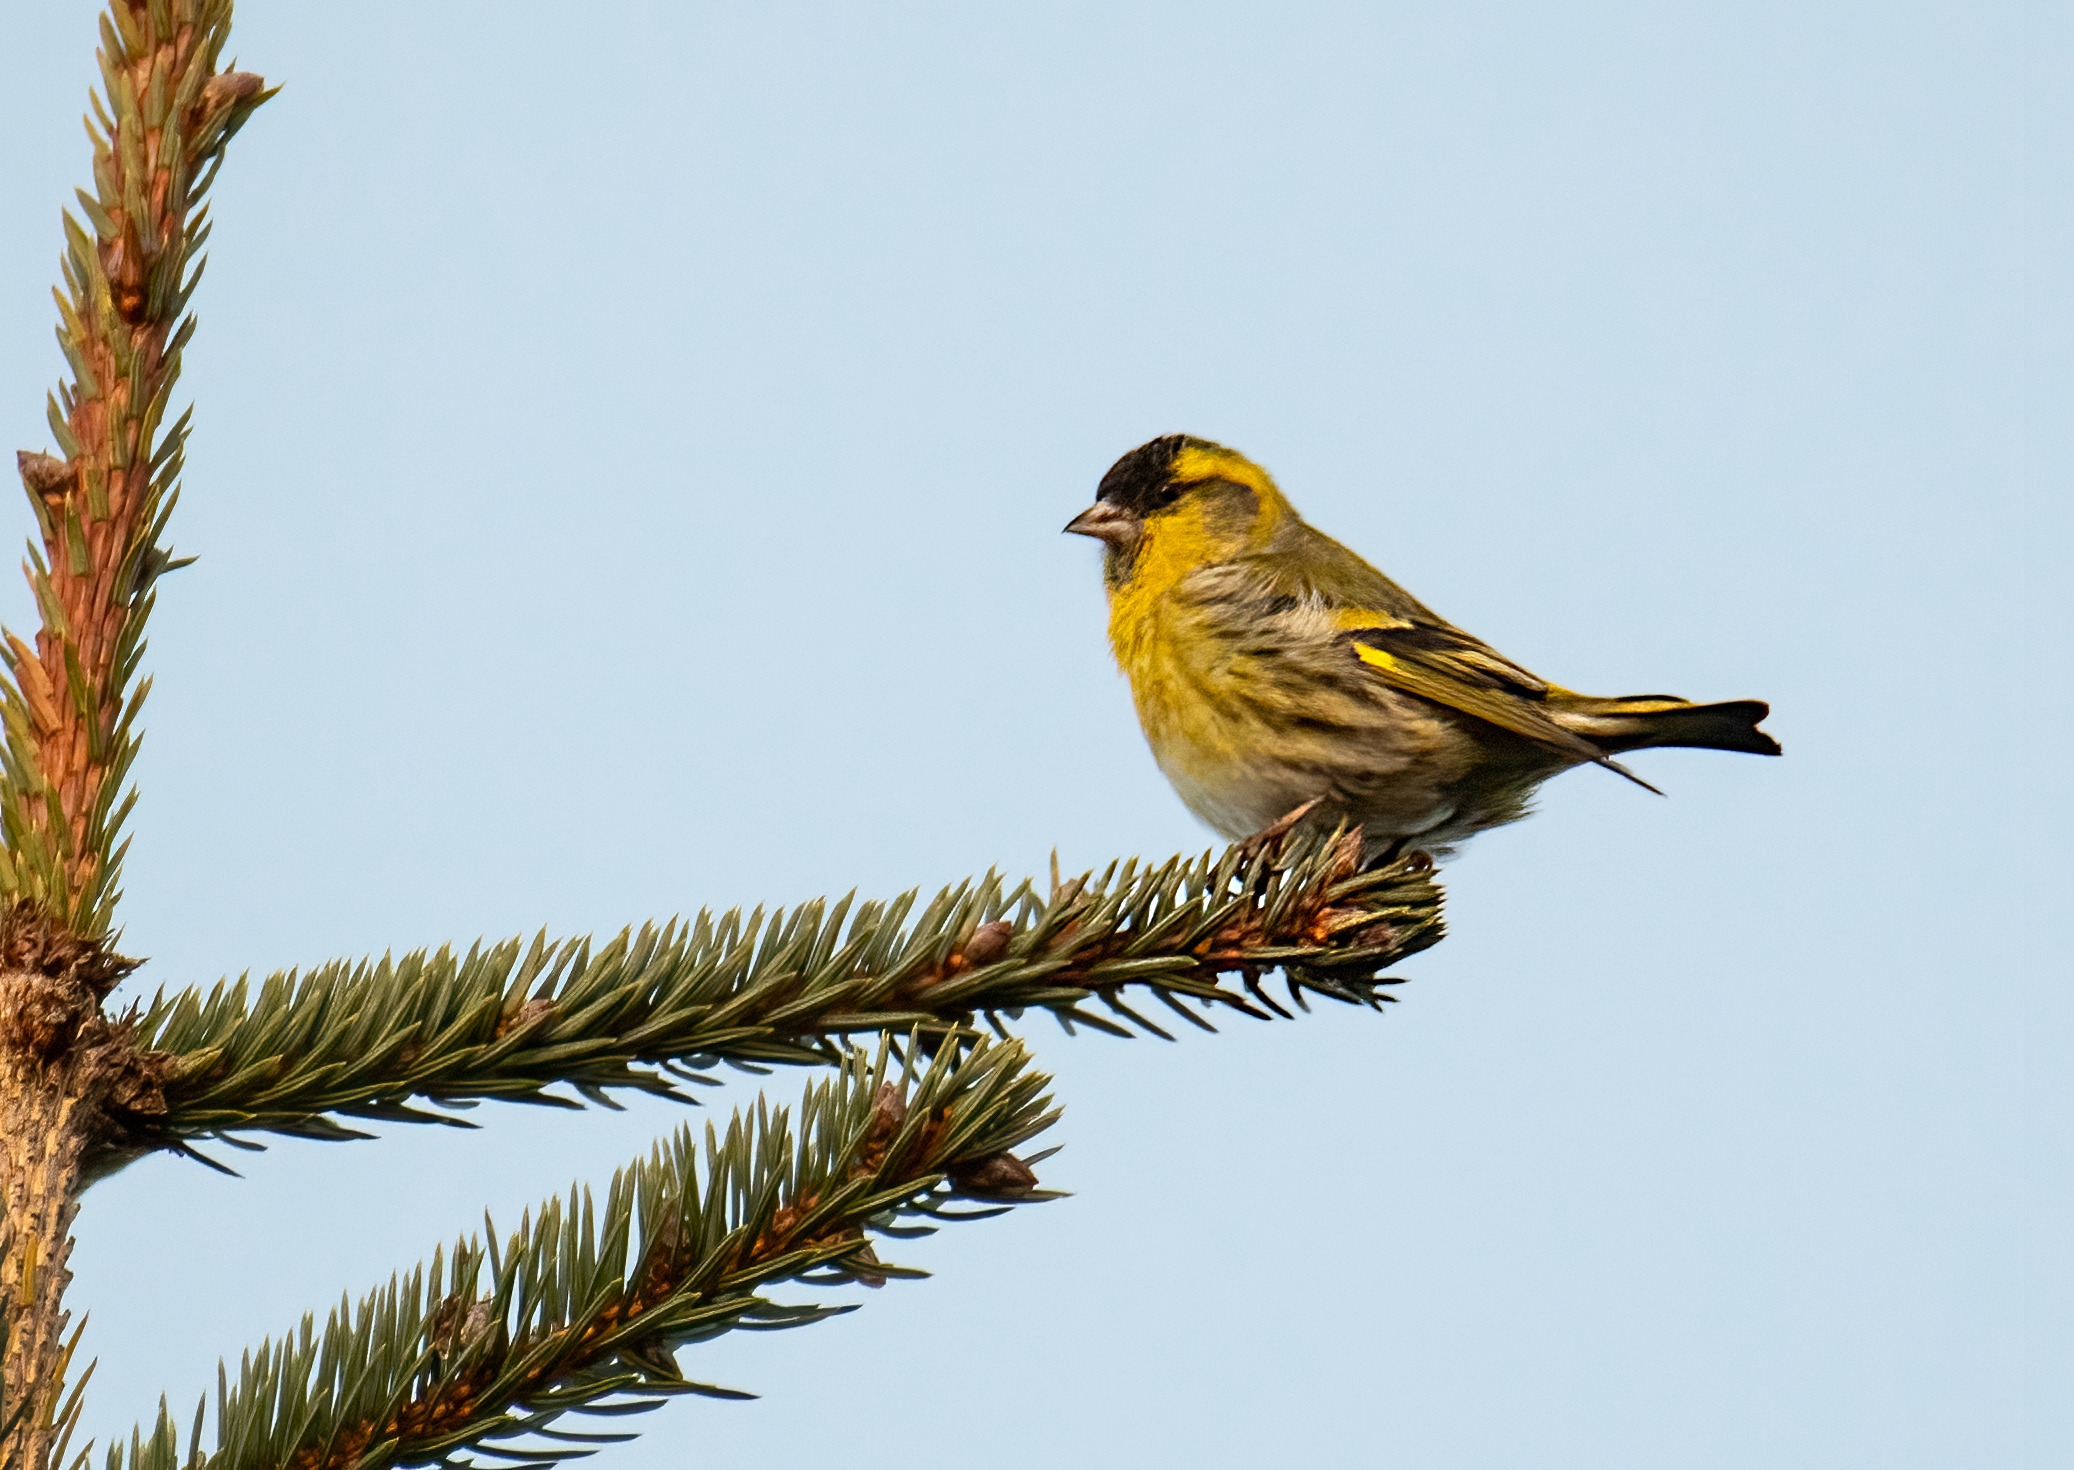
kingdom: Animalia
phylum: Chordata
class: Aves
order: Passeriformes
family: Fringillidae
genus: Spinus
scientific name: Spinus spinus
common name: Grønsisken
